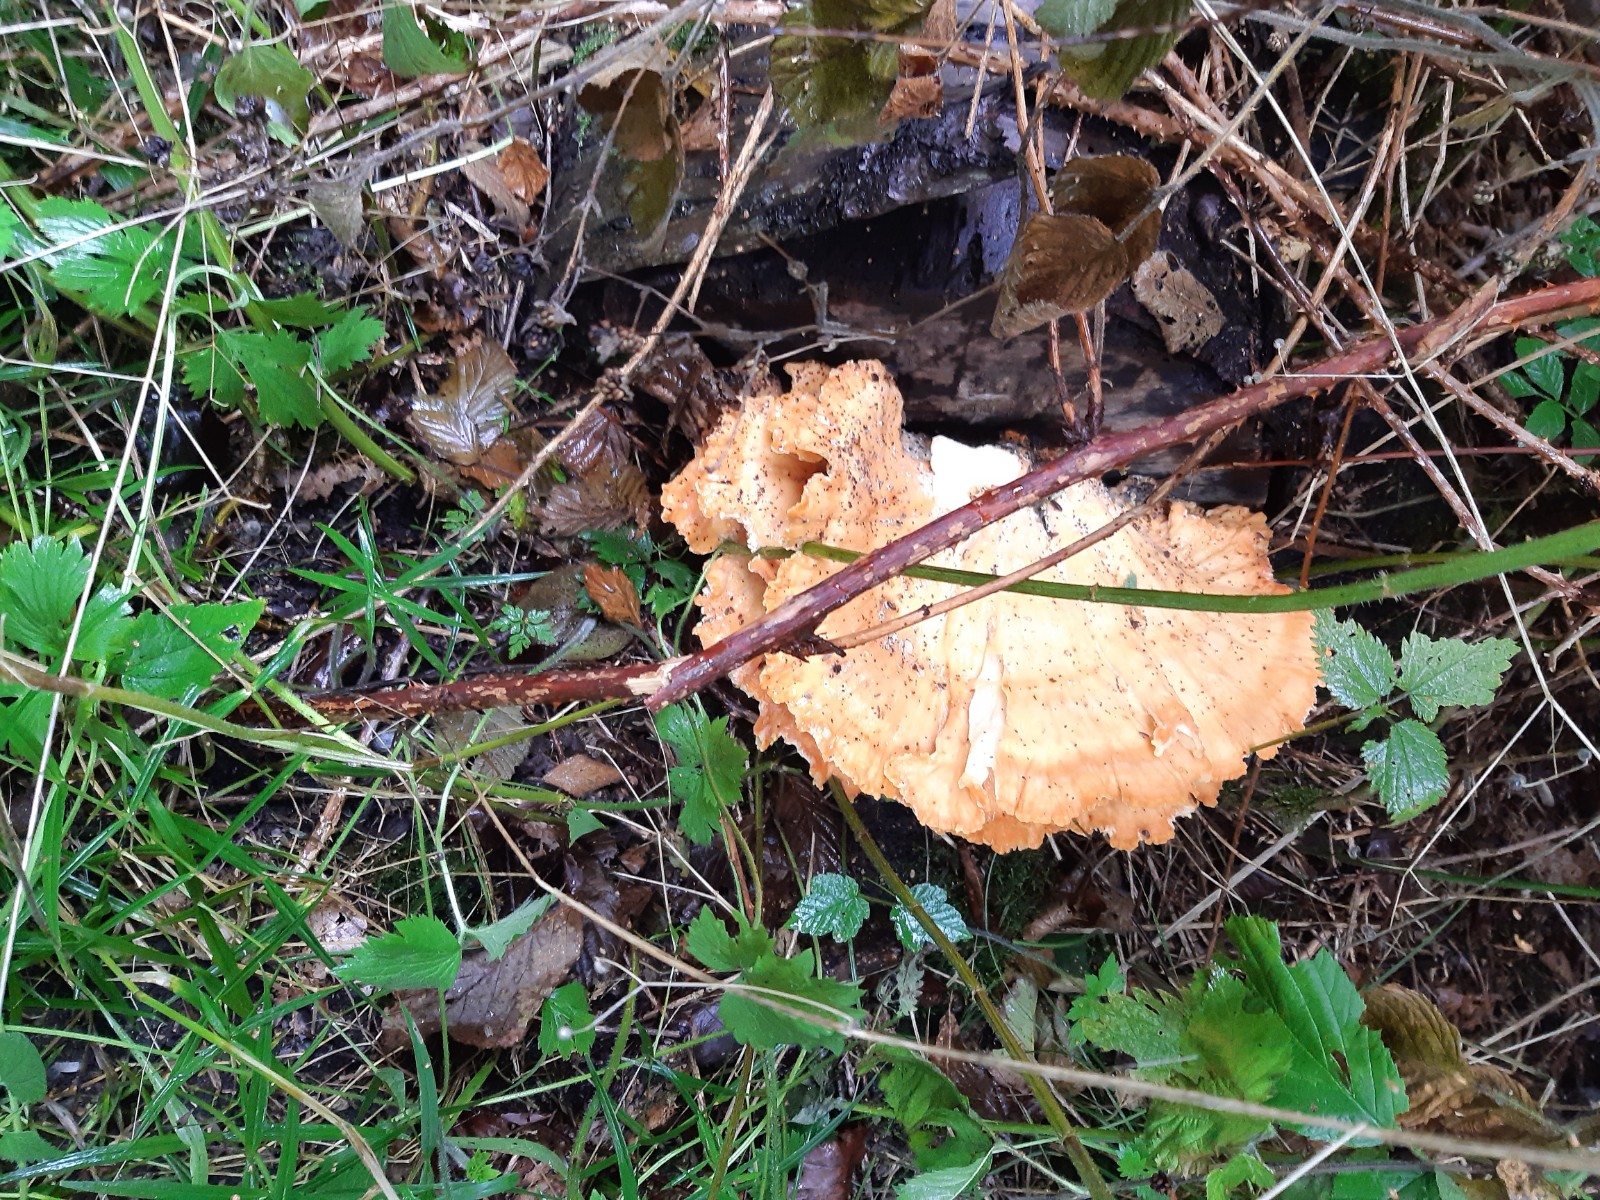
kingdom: Fungi
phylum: Basidiomycota
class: Agaricomycetes
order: Polyporales
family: Laetiporaceae
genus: Laetiporus
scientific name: Laetiporus
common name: svovlporesvamp
